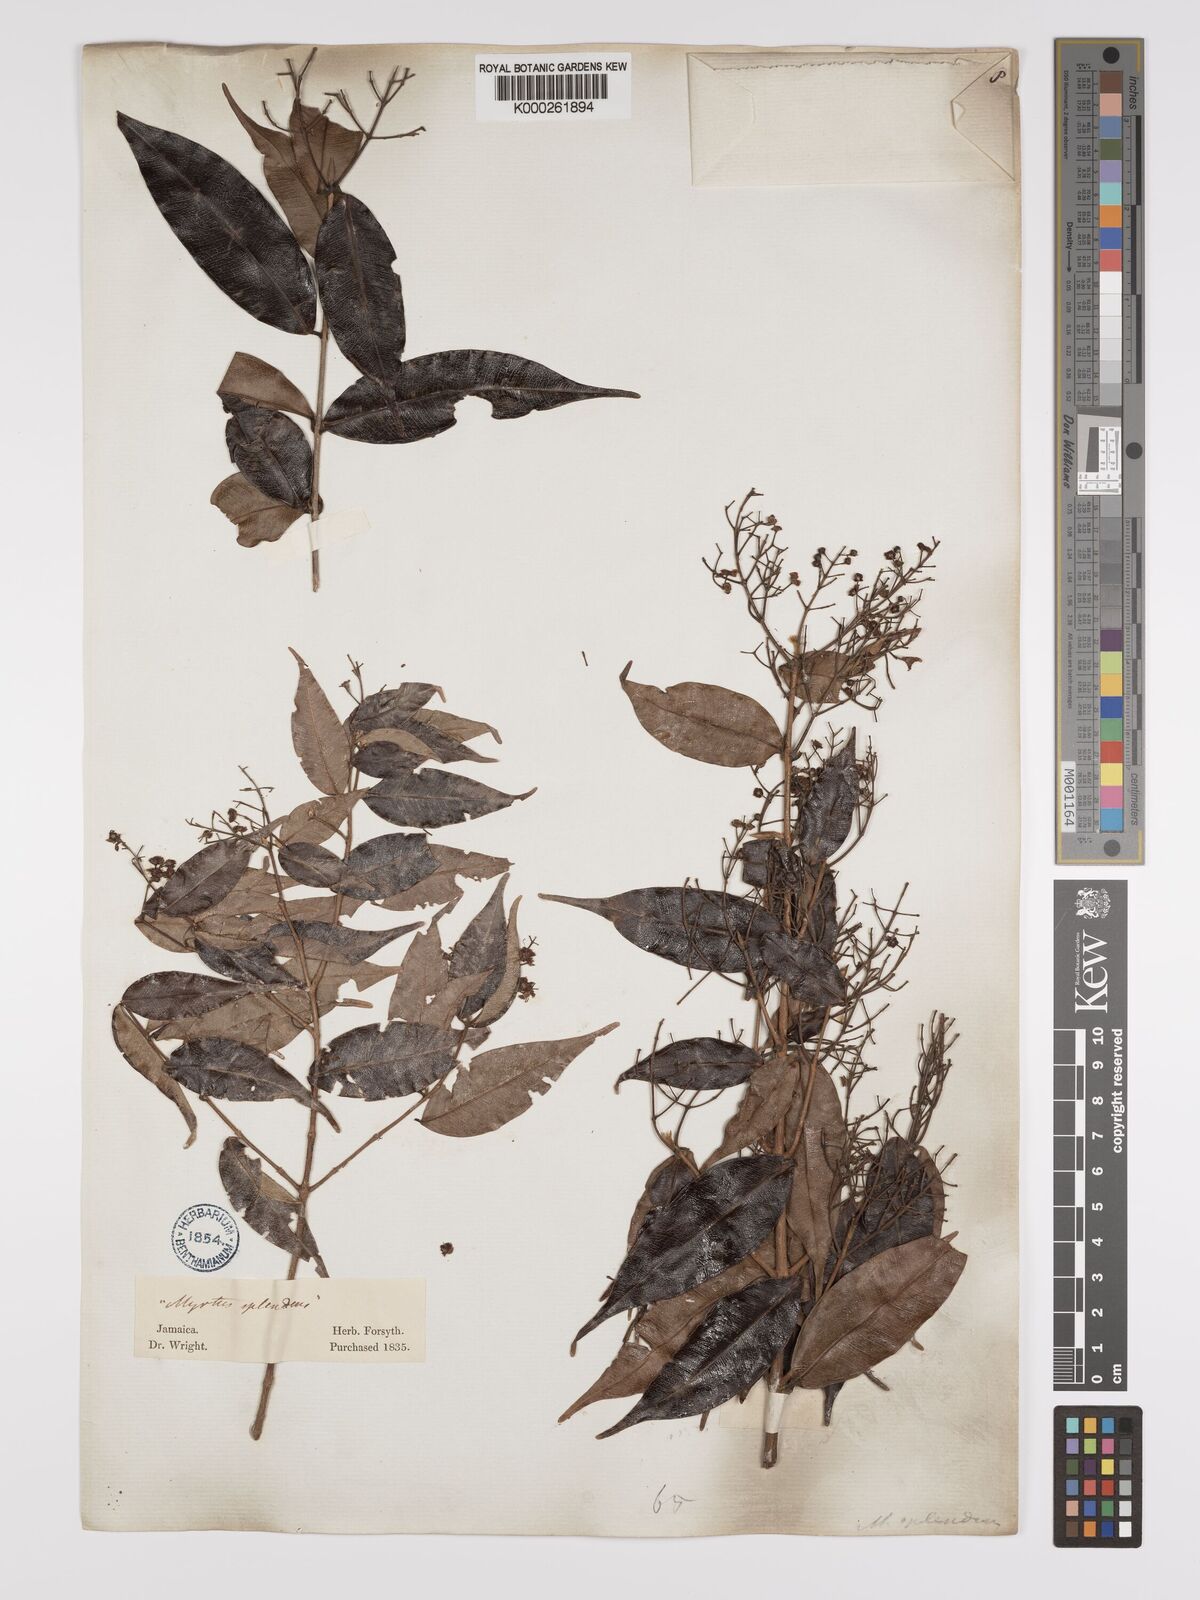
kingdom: Plantae
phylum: Tracheophyta
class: Magnoliopsida
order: Myrtales
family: Myrtaceae
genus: Myrcia
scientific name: Myrcia splendens
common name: Surinam cherry
